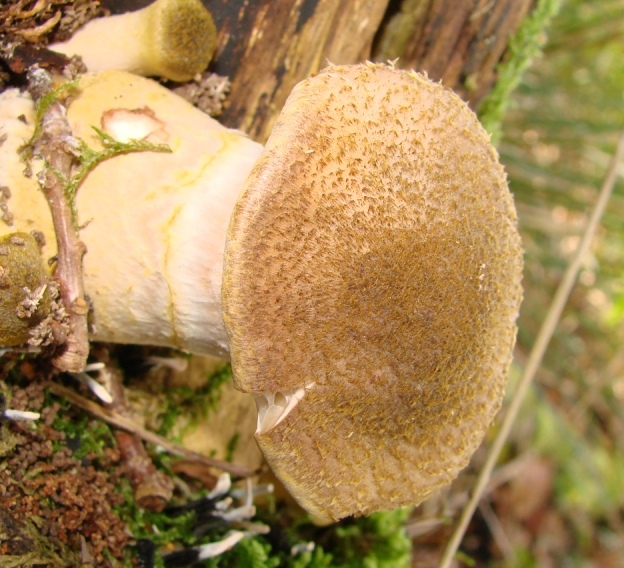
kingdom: Fungi
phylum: Basidiomycota
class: Agaricomycetes
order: Agaricales
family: Physalacriaceae
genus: Armillaria
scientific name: Armillaria lutea
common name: køllestokket honningsvamp
